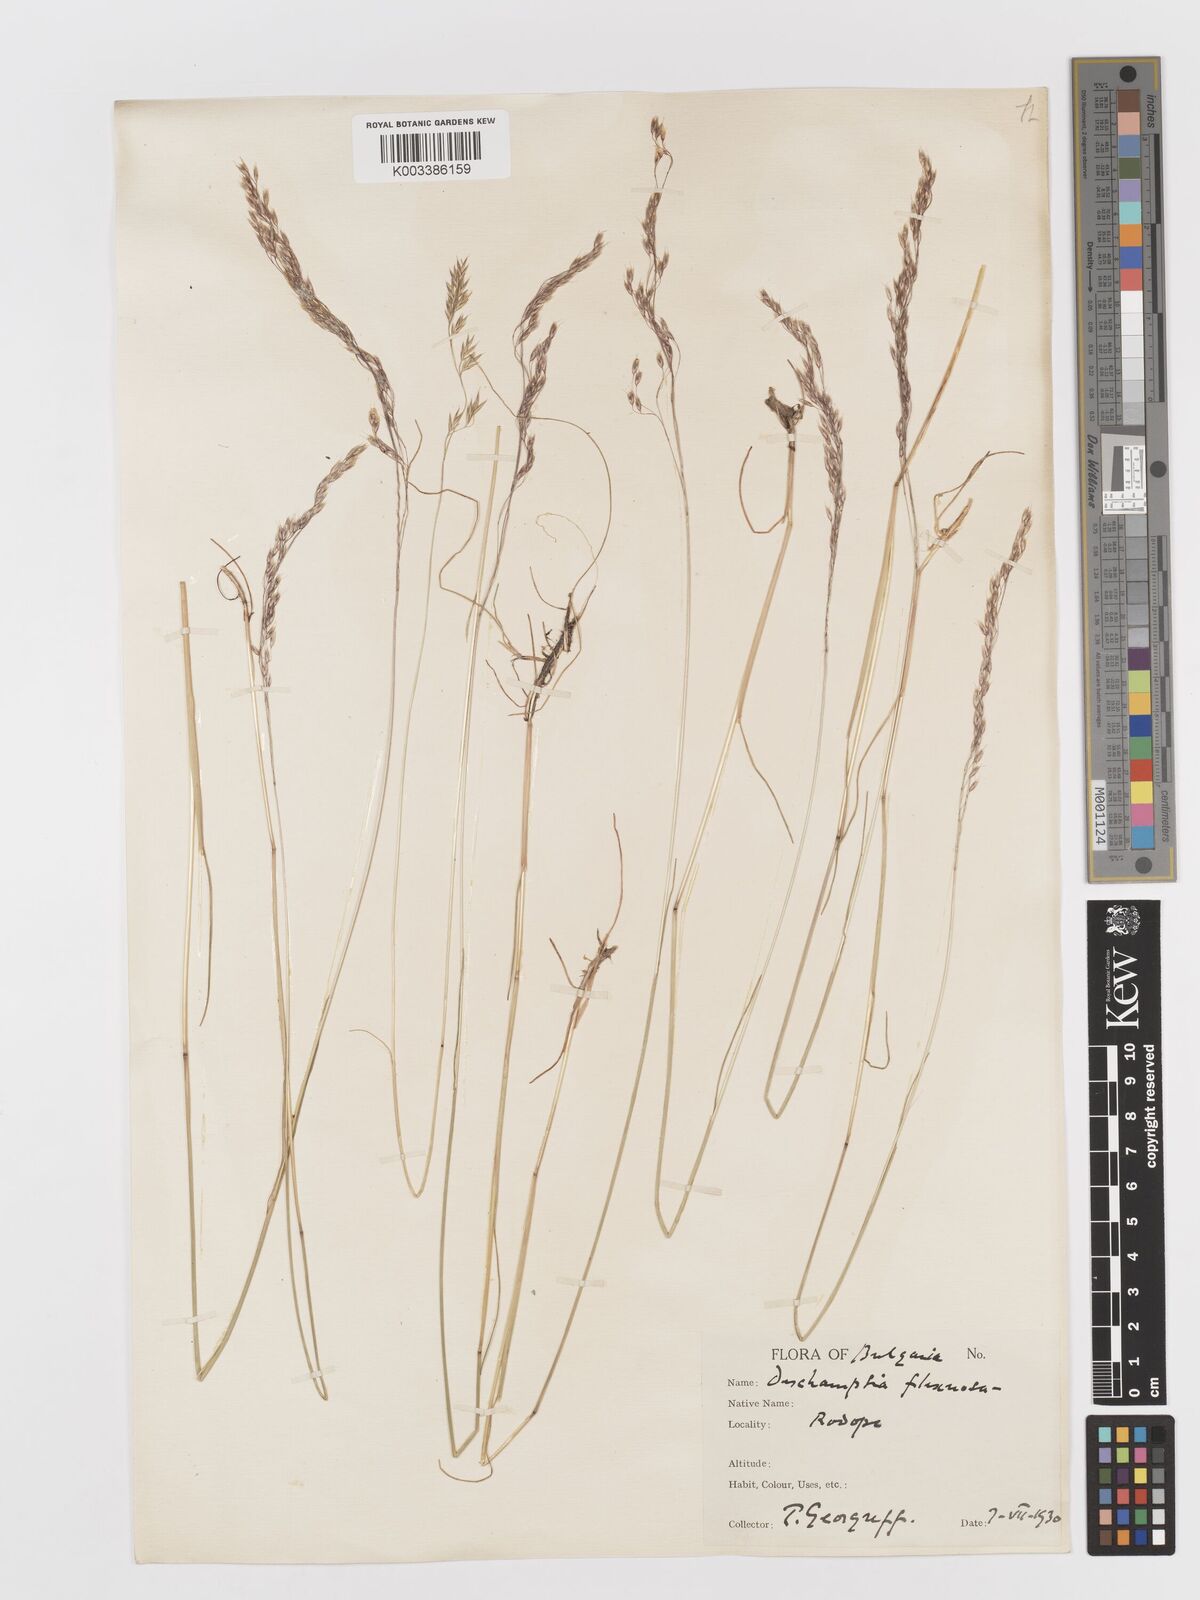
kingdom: Plantae
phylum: Tracheophyta
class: Liliopsida
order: Poales
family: Poaceae
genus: Avenella
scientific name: Avenella flexuosa
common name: Wavy hairgrass
